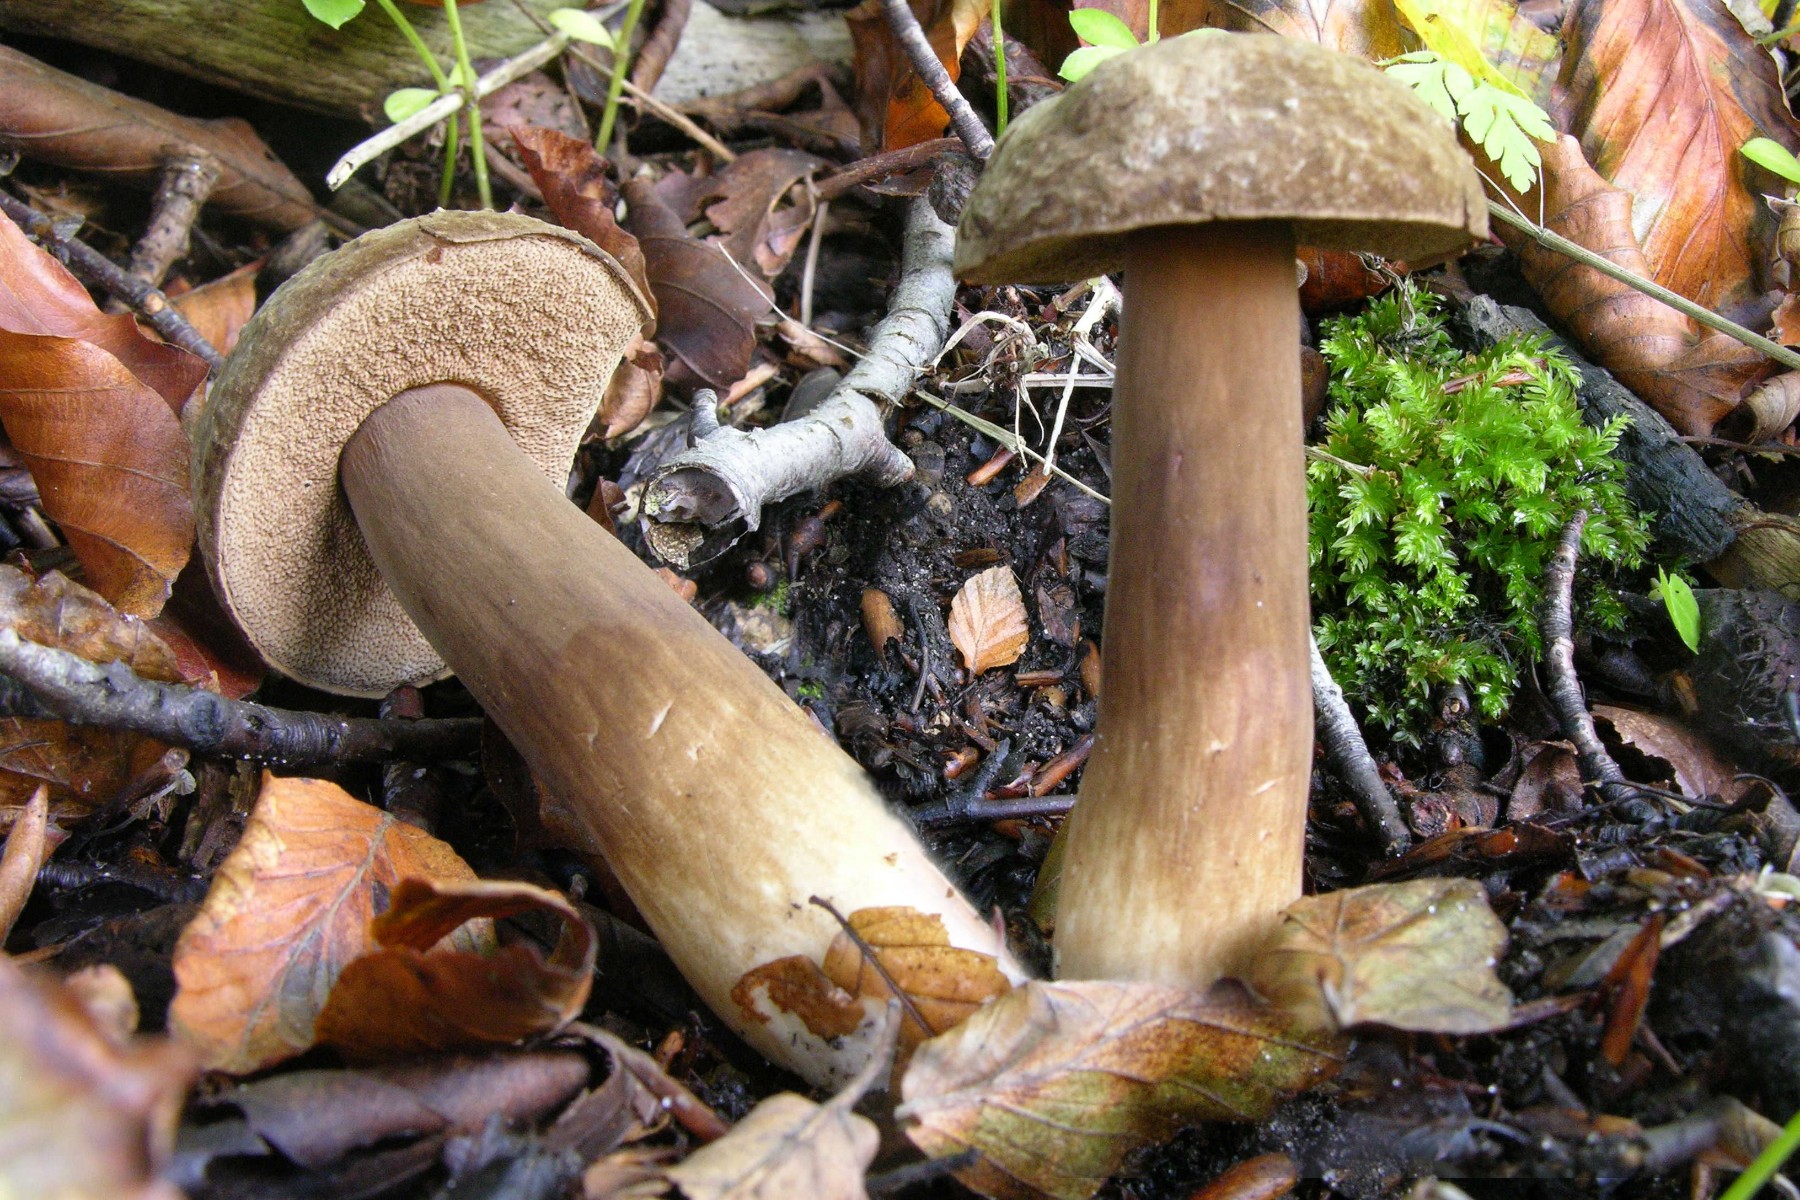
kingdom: Fungi
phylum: Basidiomycota
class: Agaricomycetes
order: Boletales
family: Boletaceae
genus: Porphyrellus
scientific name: Porphyrellus porphyrosporus
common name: sodrørhat
